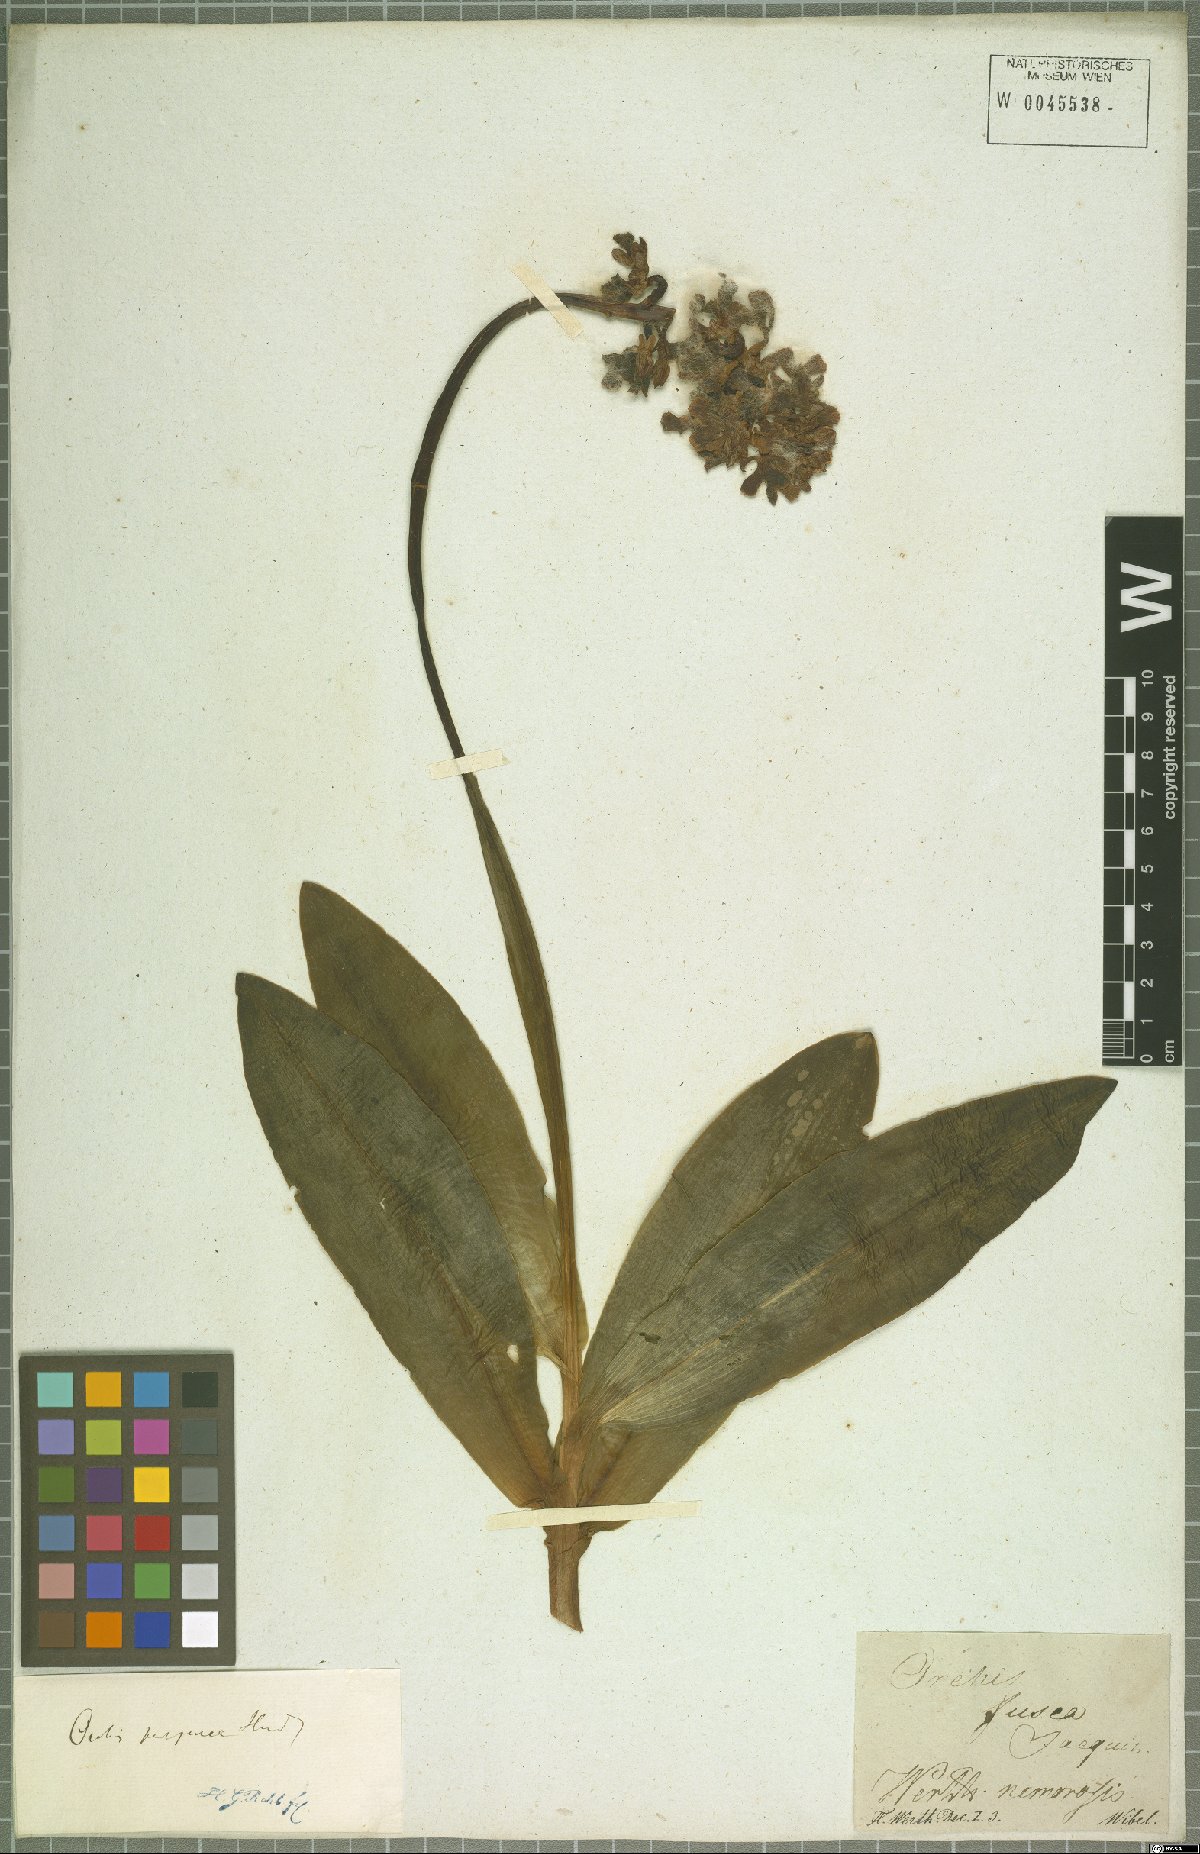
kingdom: Plantae
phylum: Tracheophyta
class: Liliopsida
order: Asparagales
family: Orchidaceae
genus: Orchis
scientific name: Orchis purpurea
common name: Lady orchid
